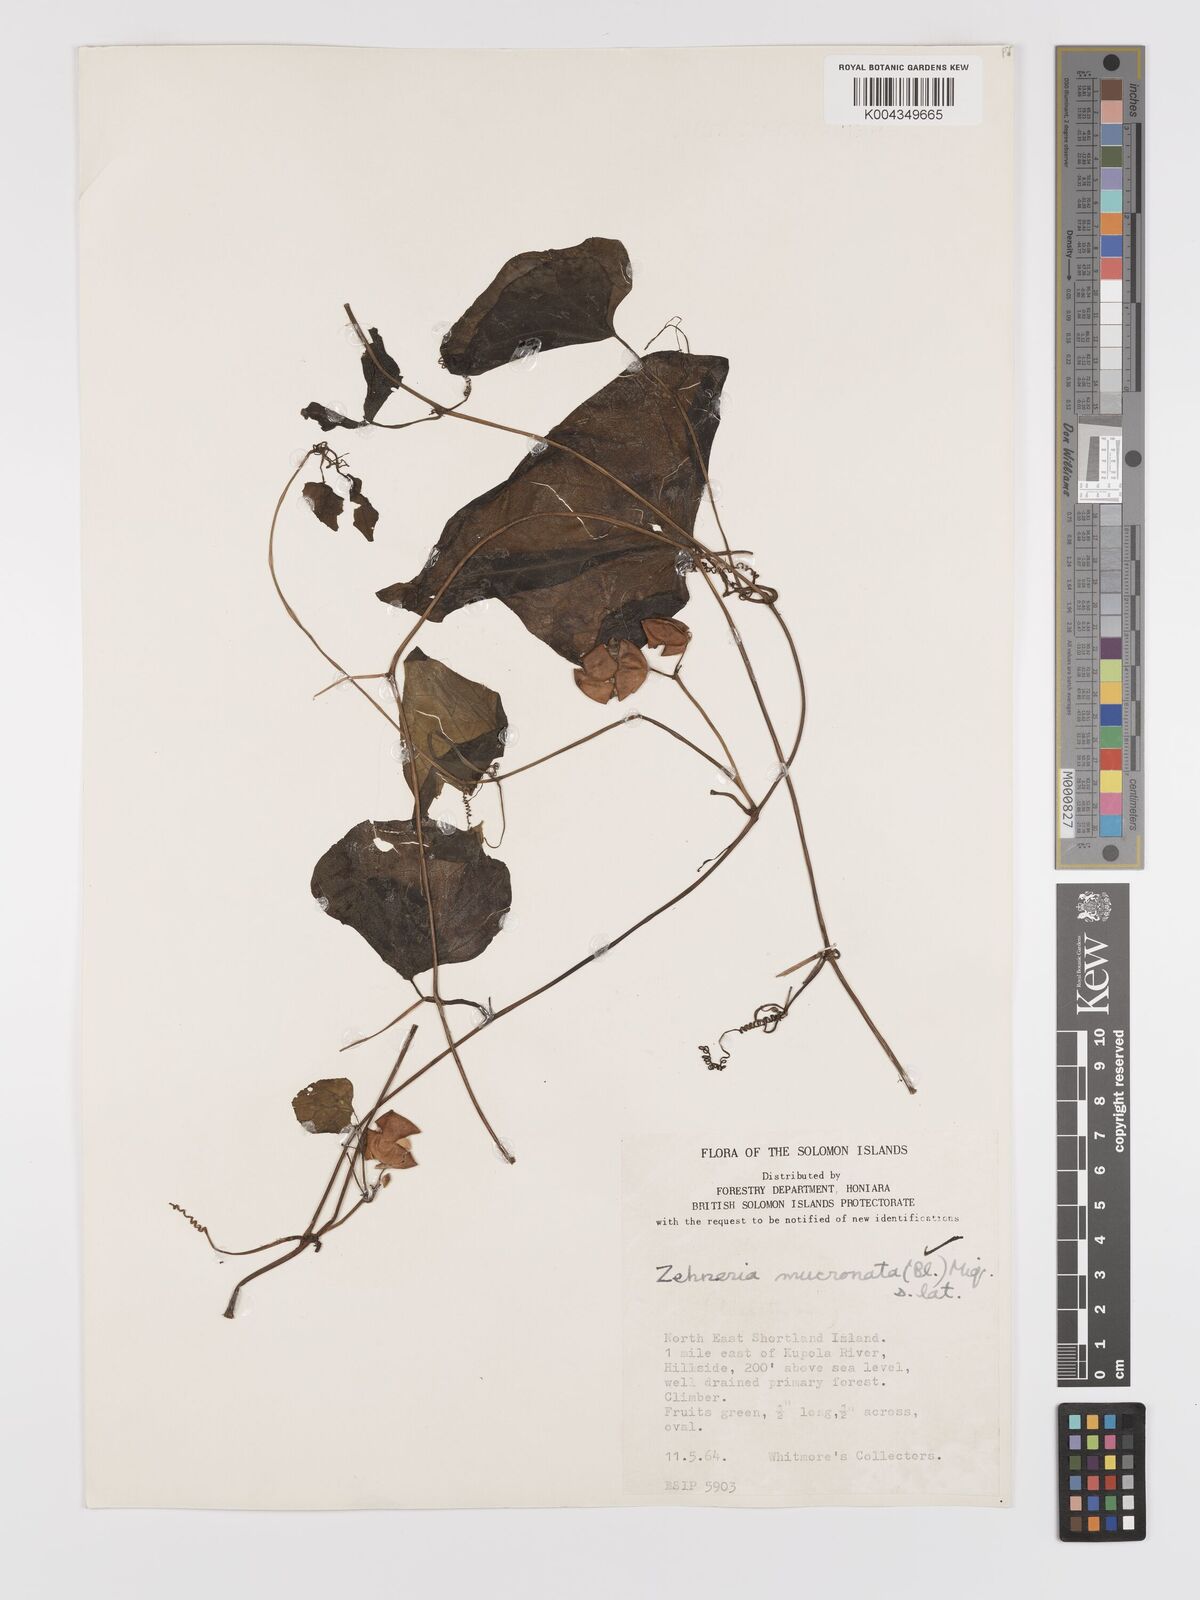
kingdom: Plantae
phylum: Tracheophyta
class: Magnoliopsida
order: Cucurbitales
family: Cucurbitaceae
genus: Zehneria
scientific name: Zehneria mucronata
